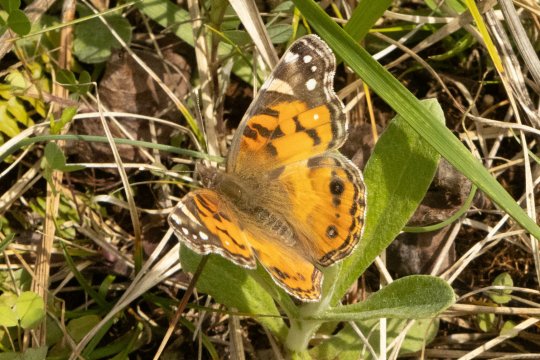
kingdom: Animalia
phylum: Arthropoda
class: Insecta
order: Lepidoptera
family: Nymphalidae
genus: Vanessa
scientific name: Vanessa virginiensis
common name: American Lady
